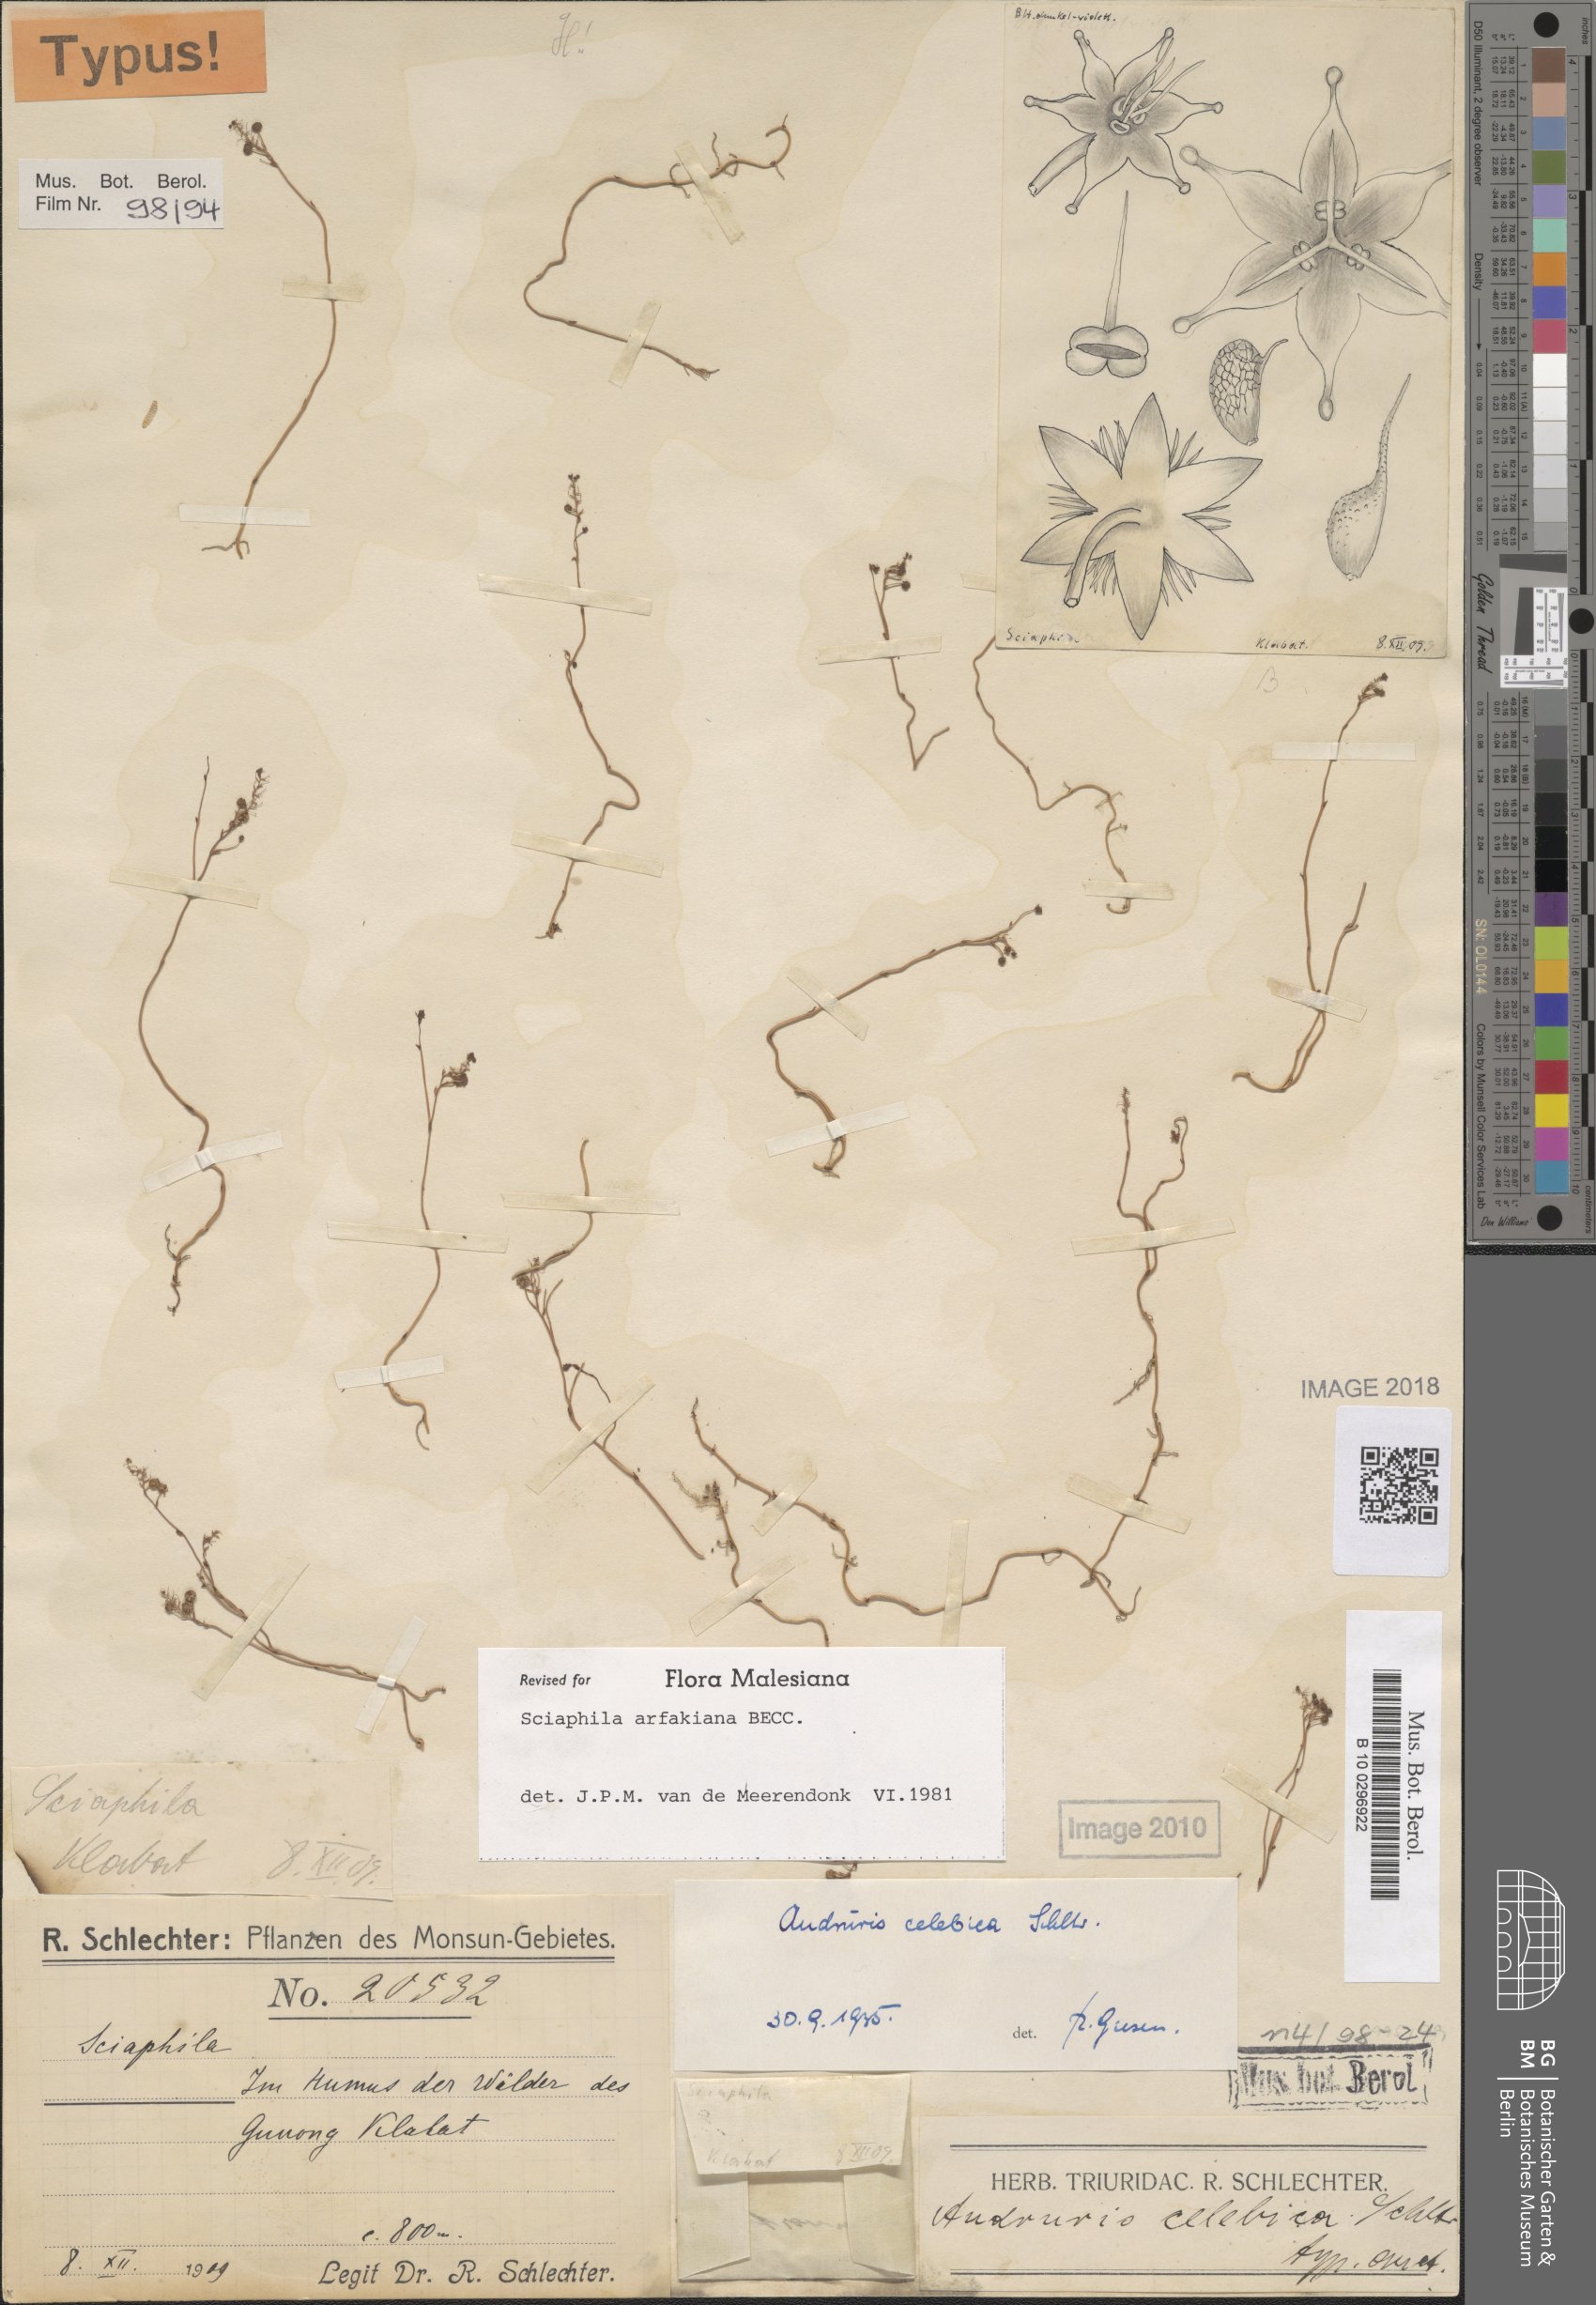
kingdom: Plantae
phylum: Tracheophyta
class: Liliopsida
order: Pandanales
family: Triuridaceae
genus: Sciaphila
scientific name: Sciaphila arfakiana
